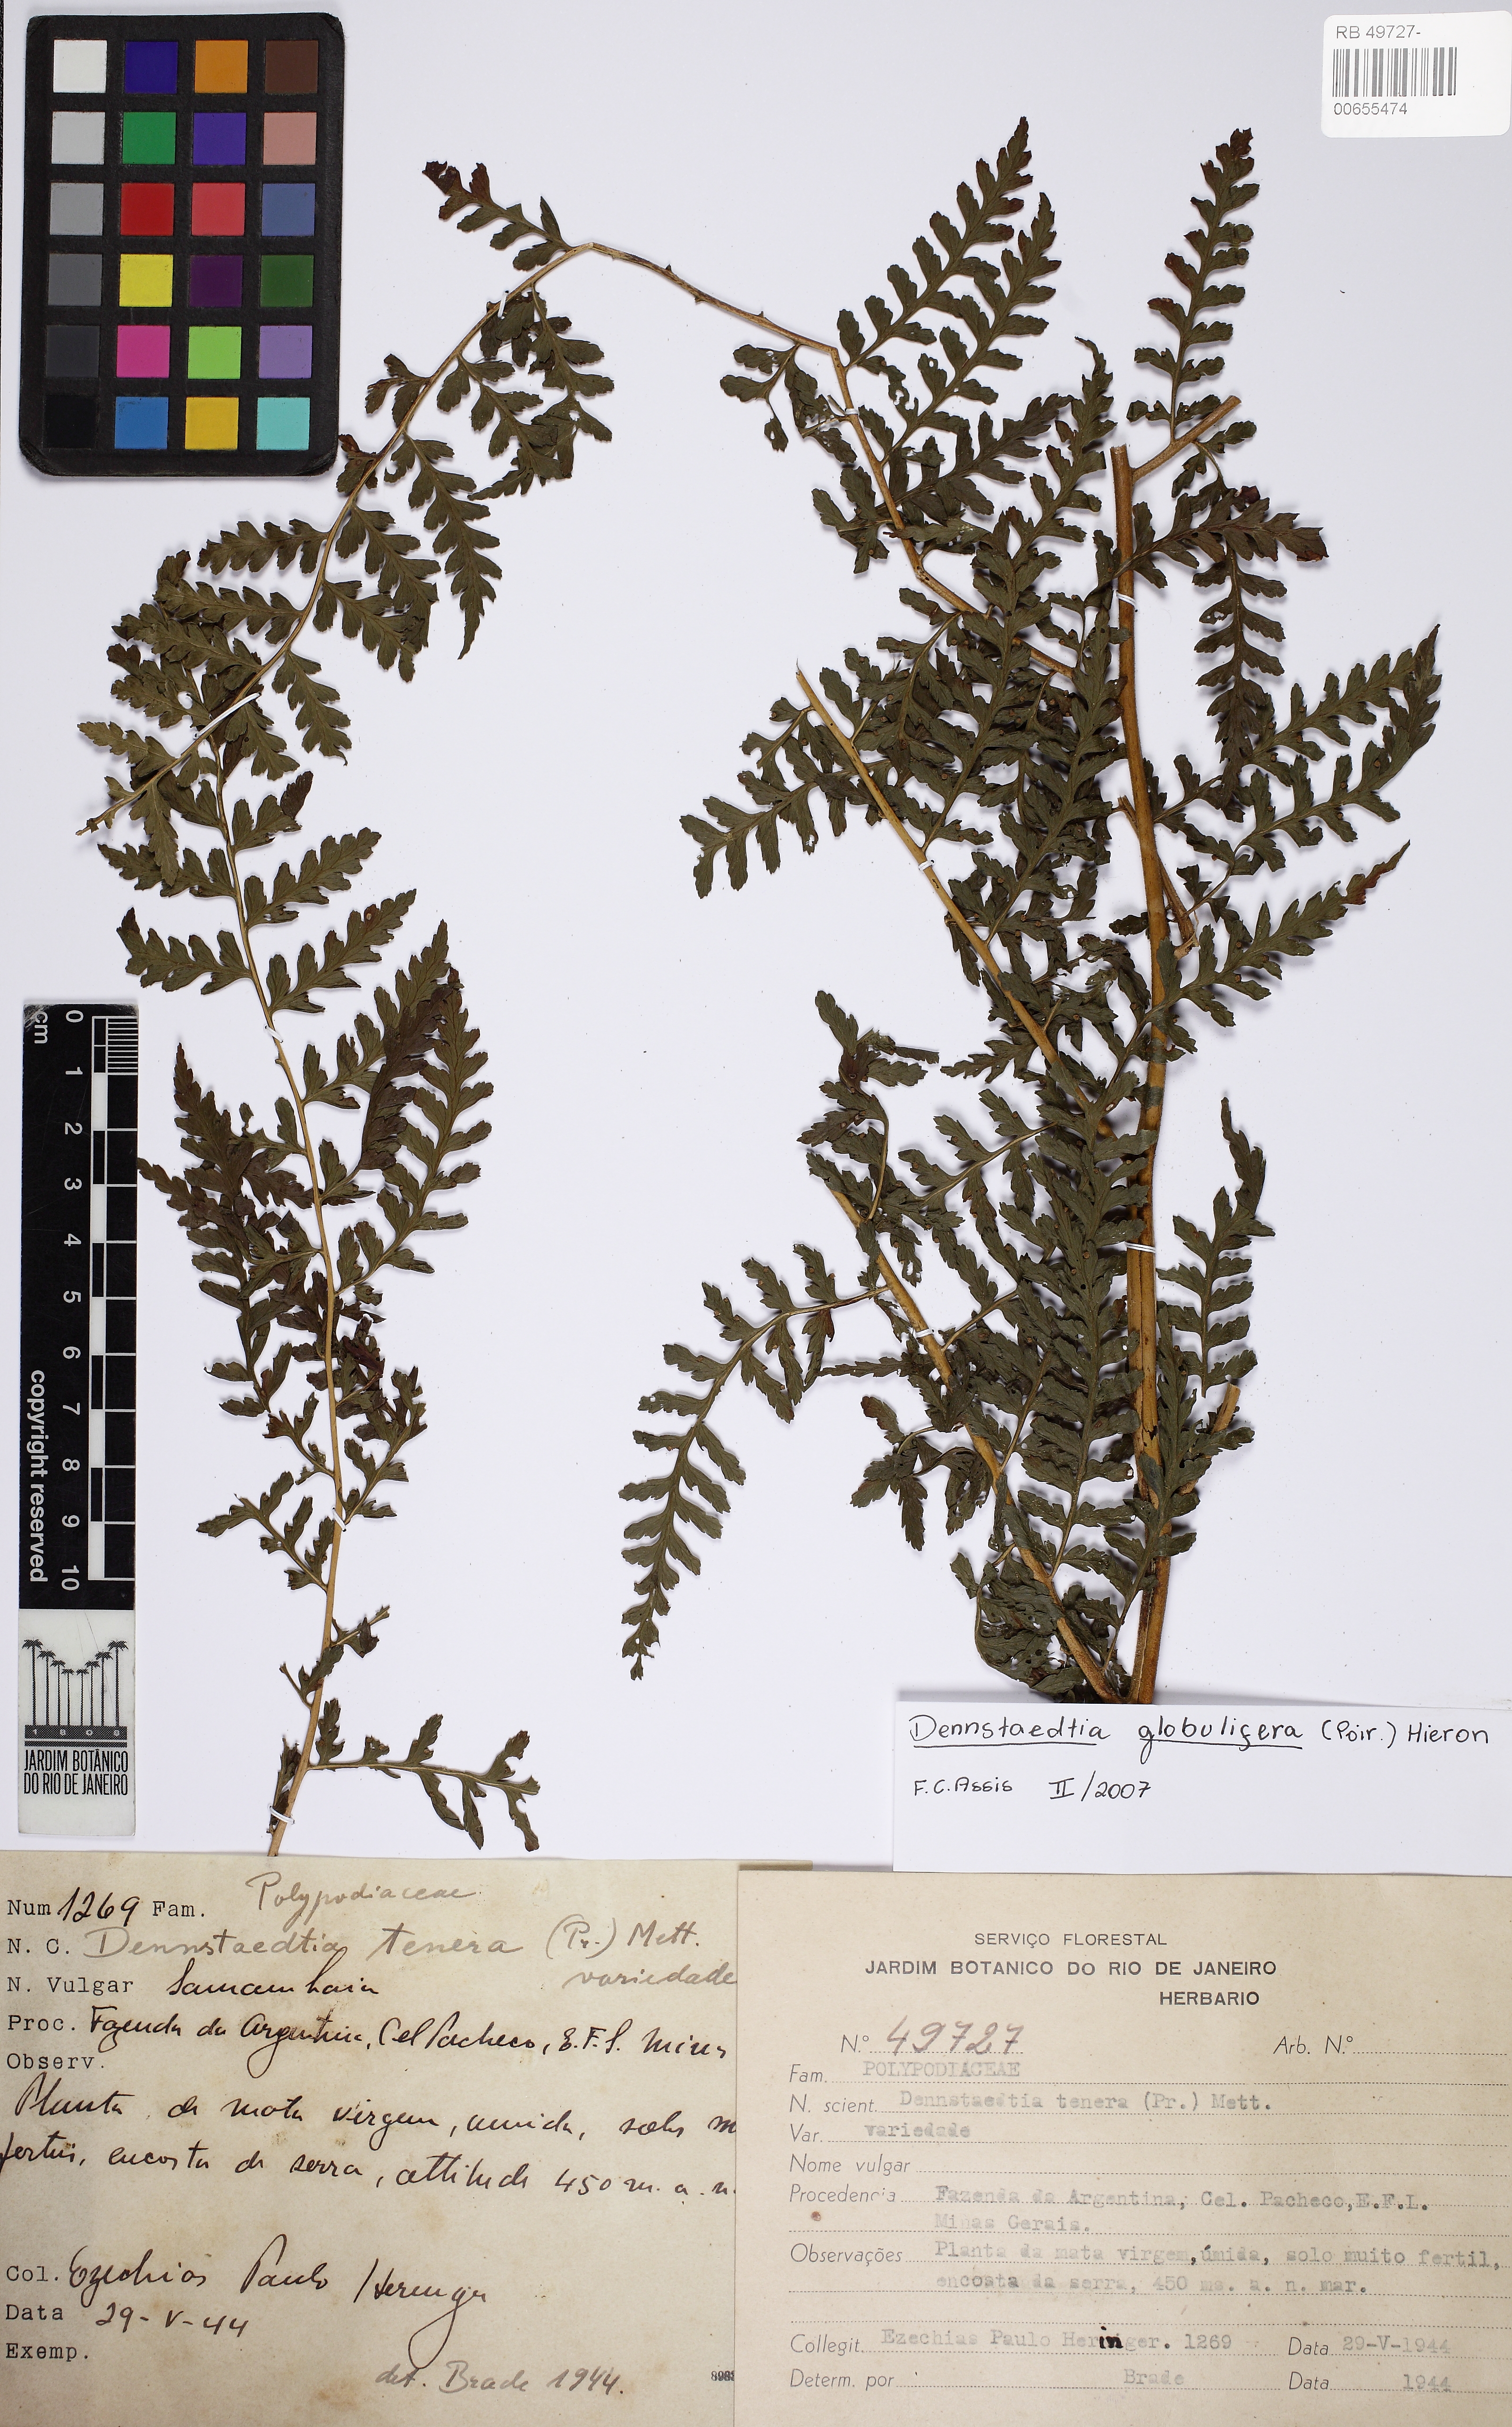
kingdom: Plantae
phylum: Tracheophyta
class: Polypodiopsida
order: Polypodiales
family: Dennstaedtiaceae
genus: Mucura
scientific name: Mucura globulifera
